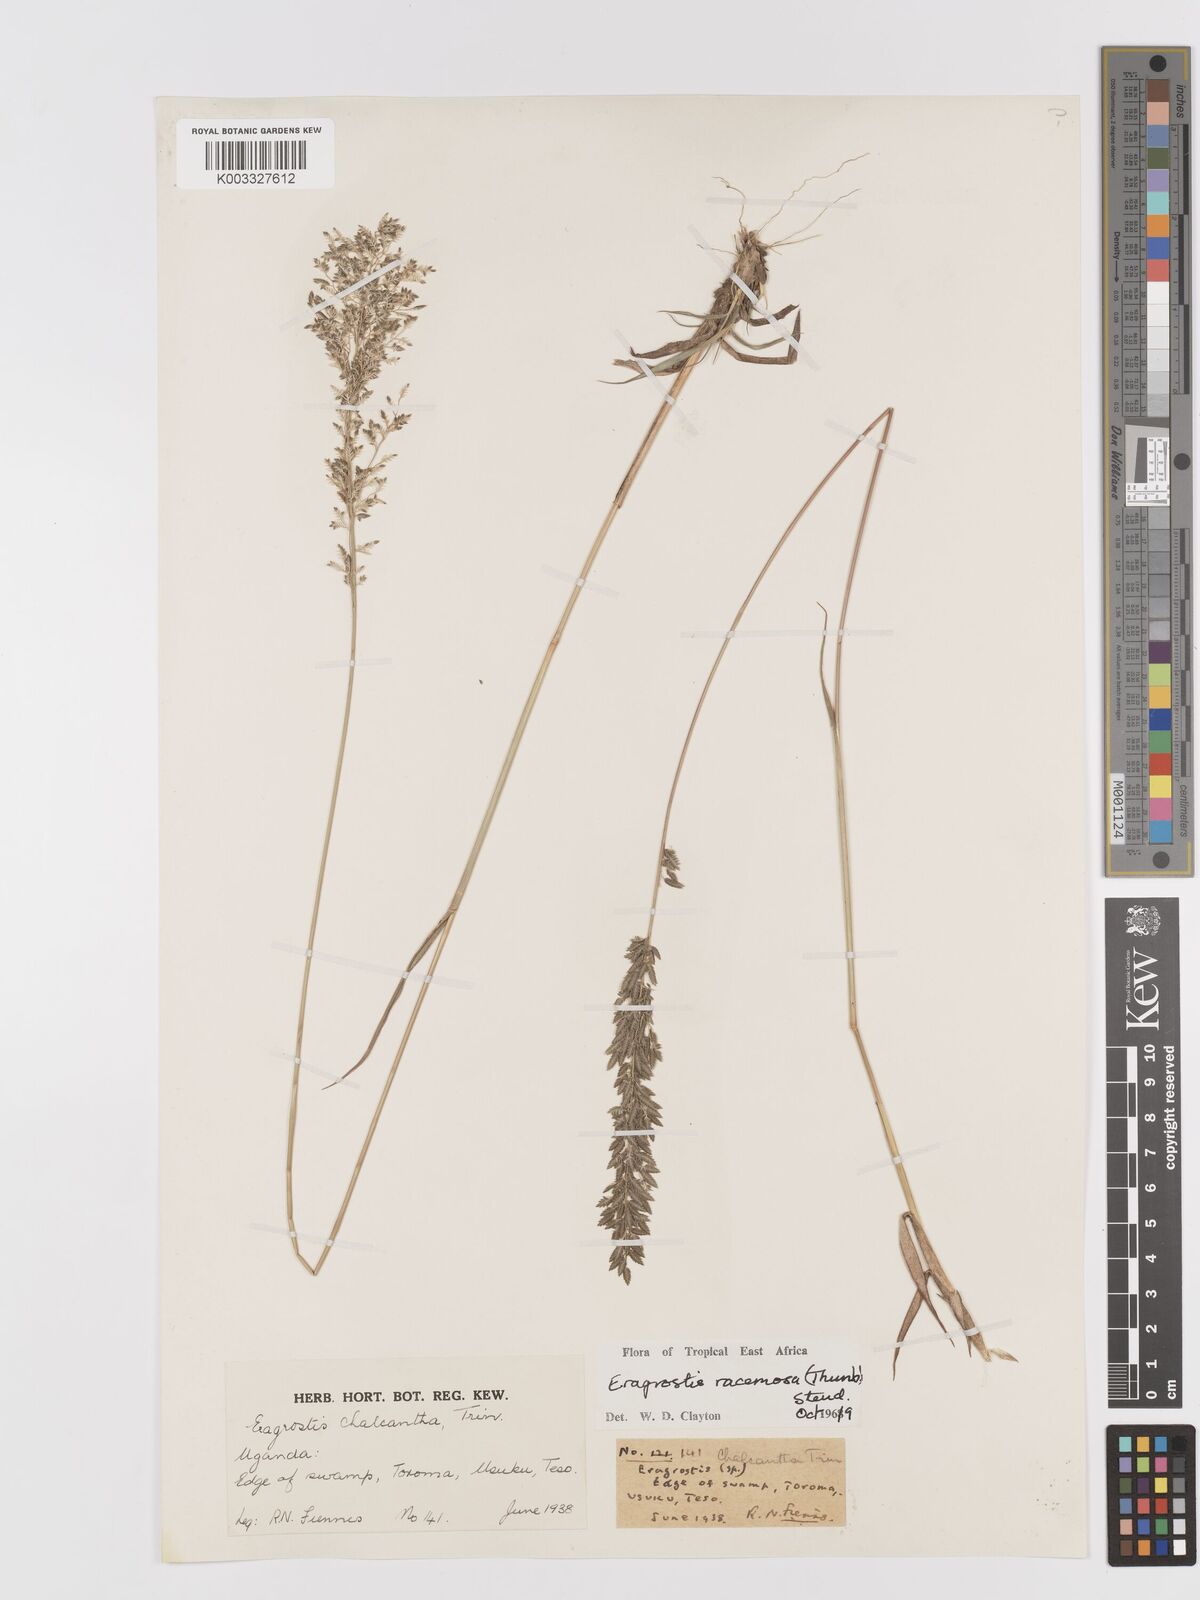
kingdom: Plantae
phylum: Tracheophyta
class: Liliopsida
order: Poales
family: Poaceae
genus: Eragrostis
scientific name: Eragrostis racemosa
